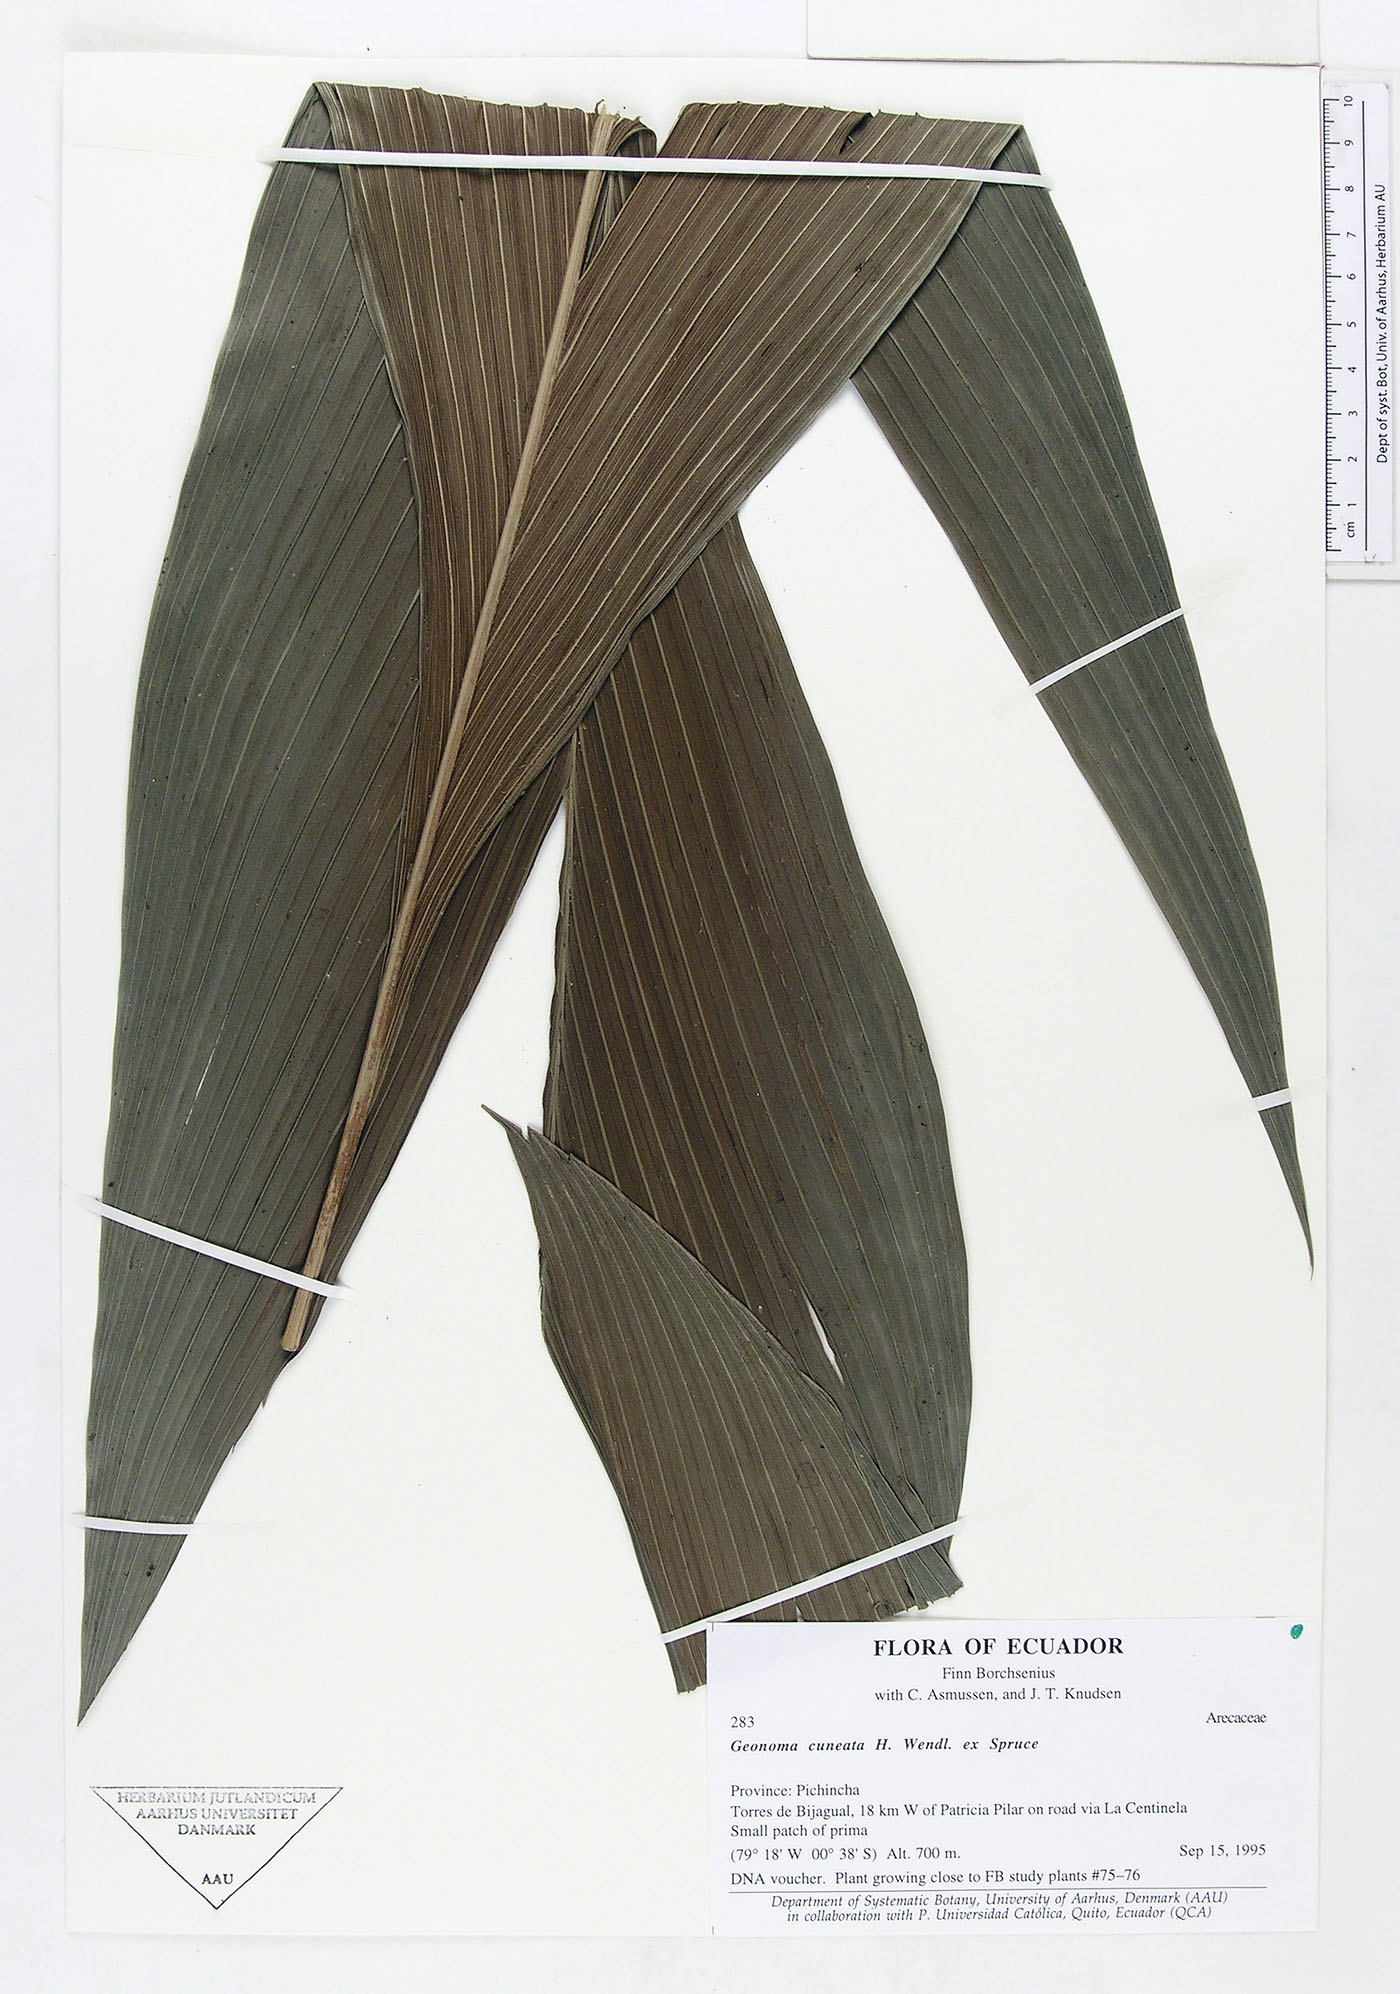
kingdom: Plantae
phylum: Tracheophyta
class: Liliopsida
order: Arecales
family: Arecaceae
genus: Geonoma
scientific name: Geonoma cuneata
